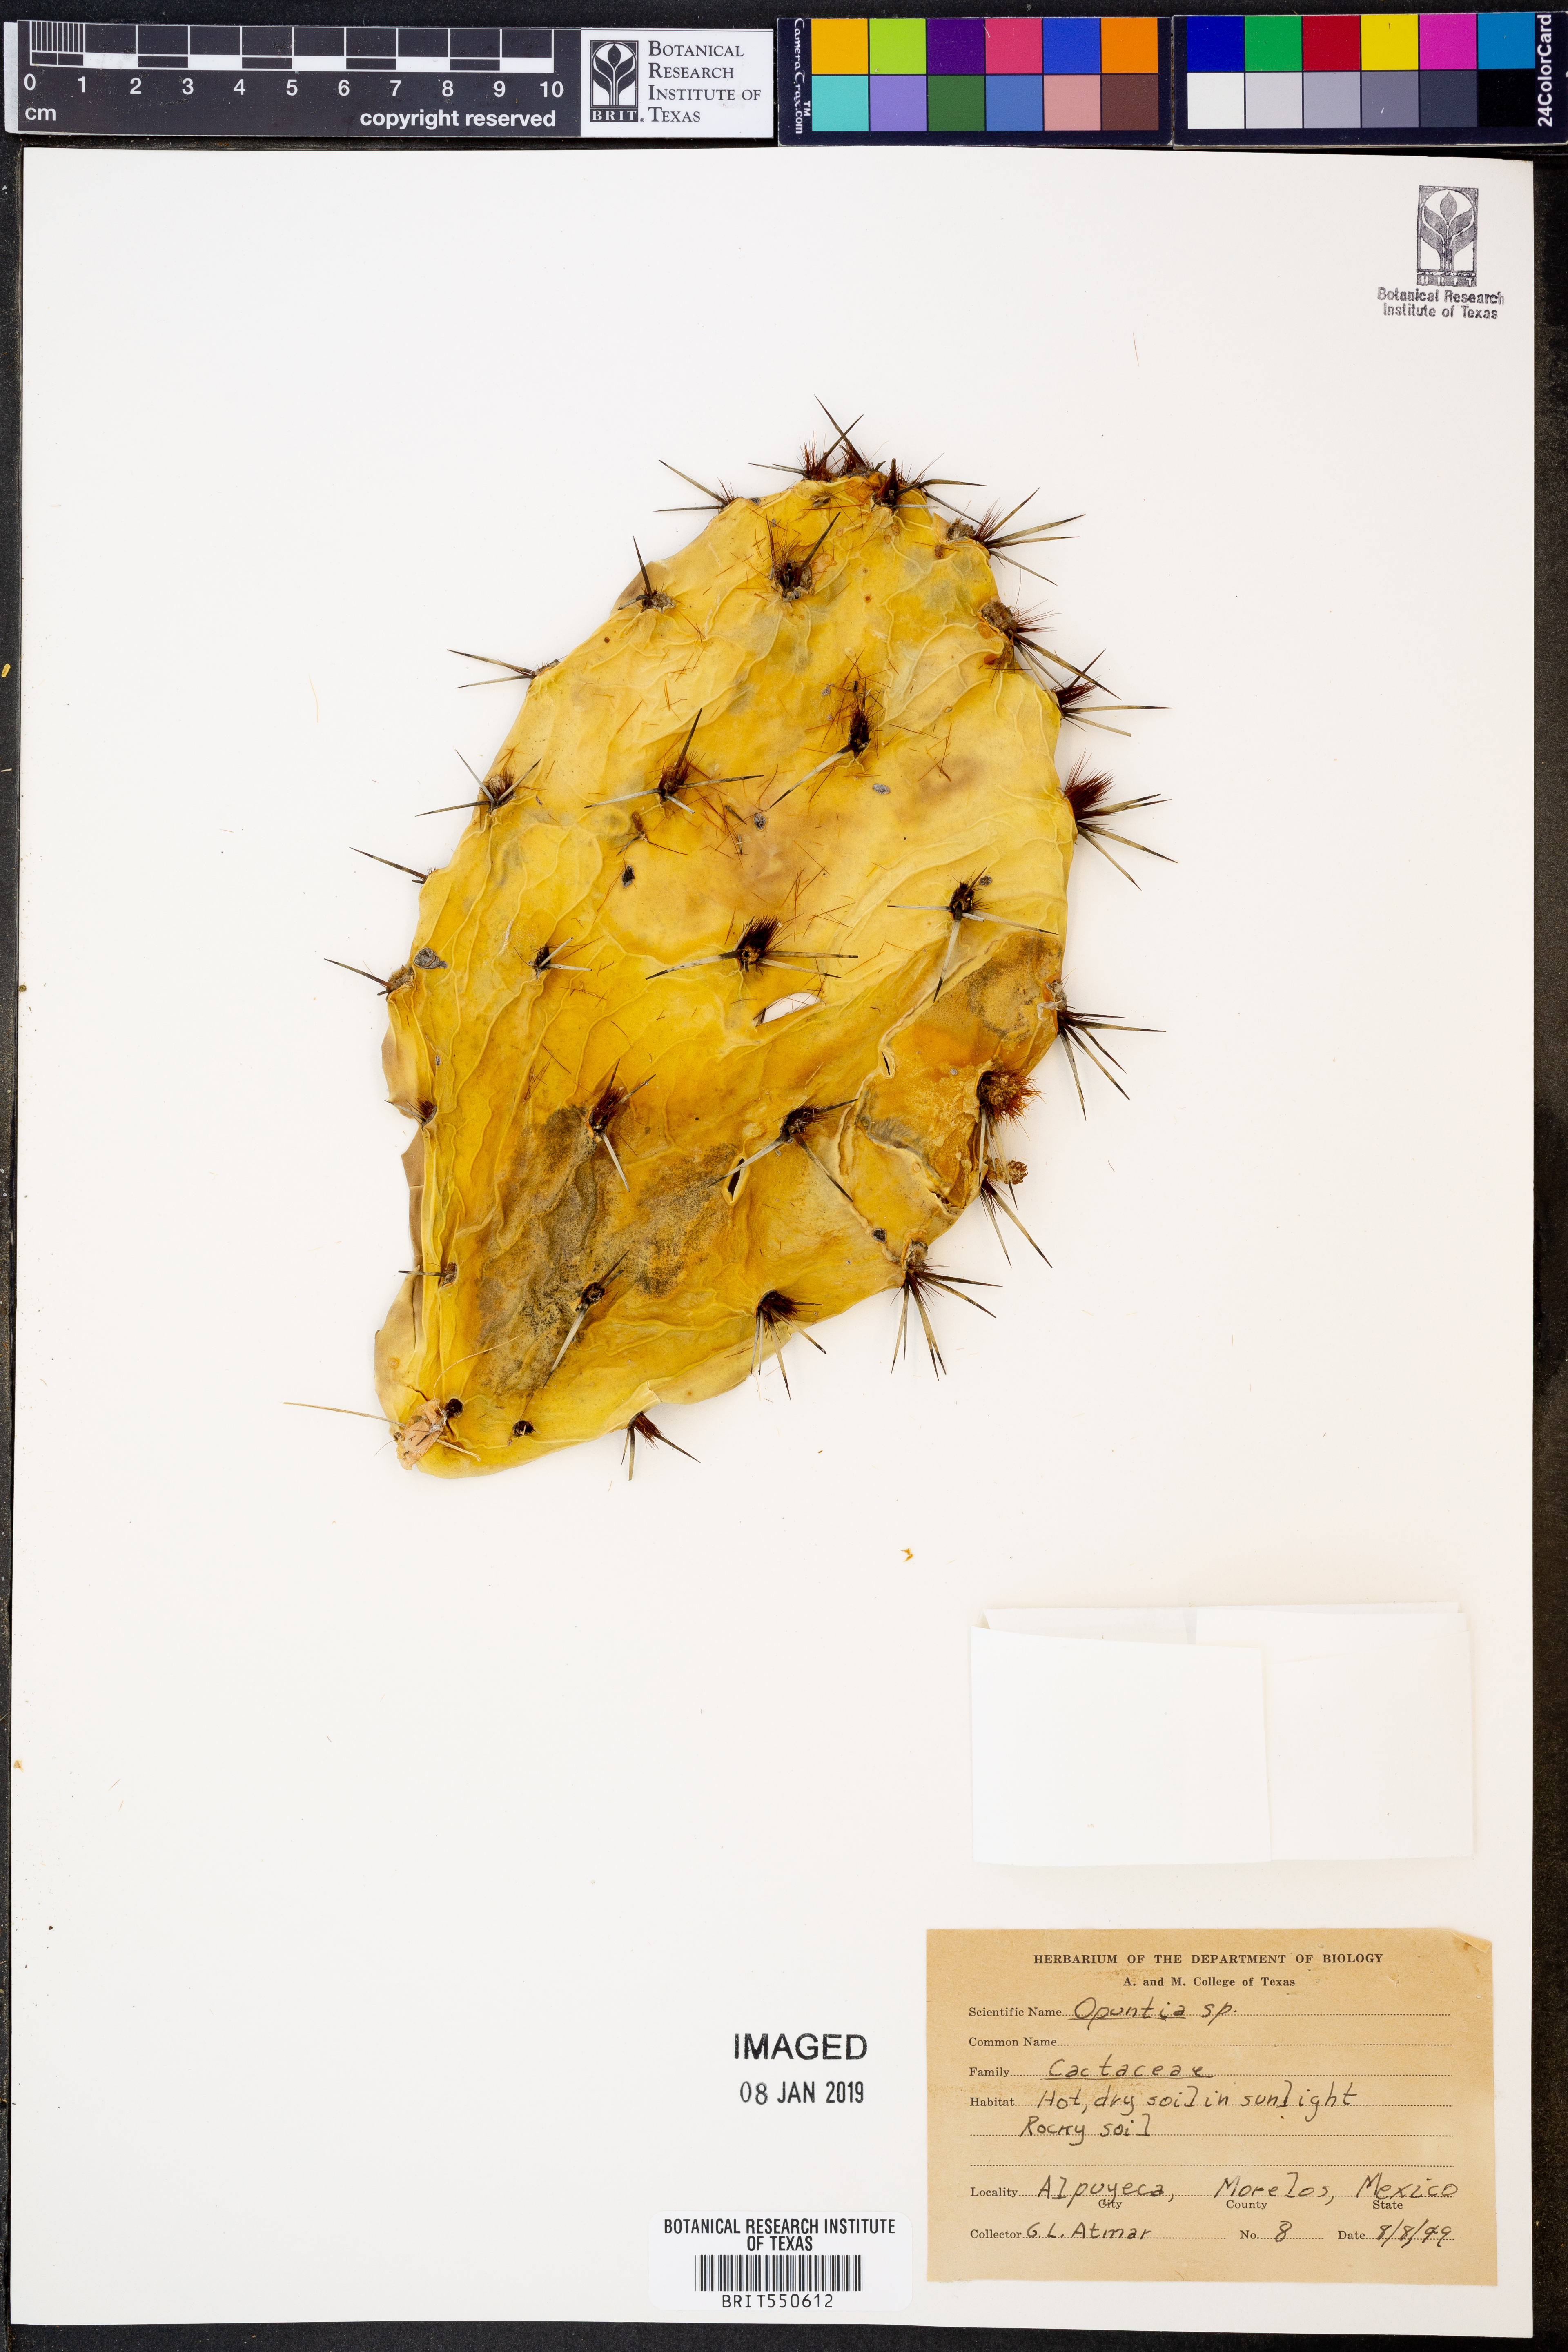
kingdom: Plantae
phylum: Tracheophyta
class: Magnoliopsida
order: Caryophyllales
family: Cactaceae
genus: Opuntia
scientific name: Opuntia
